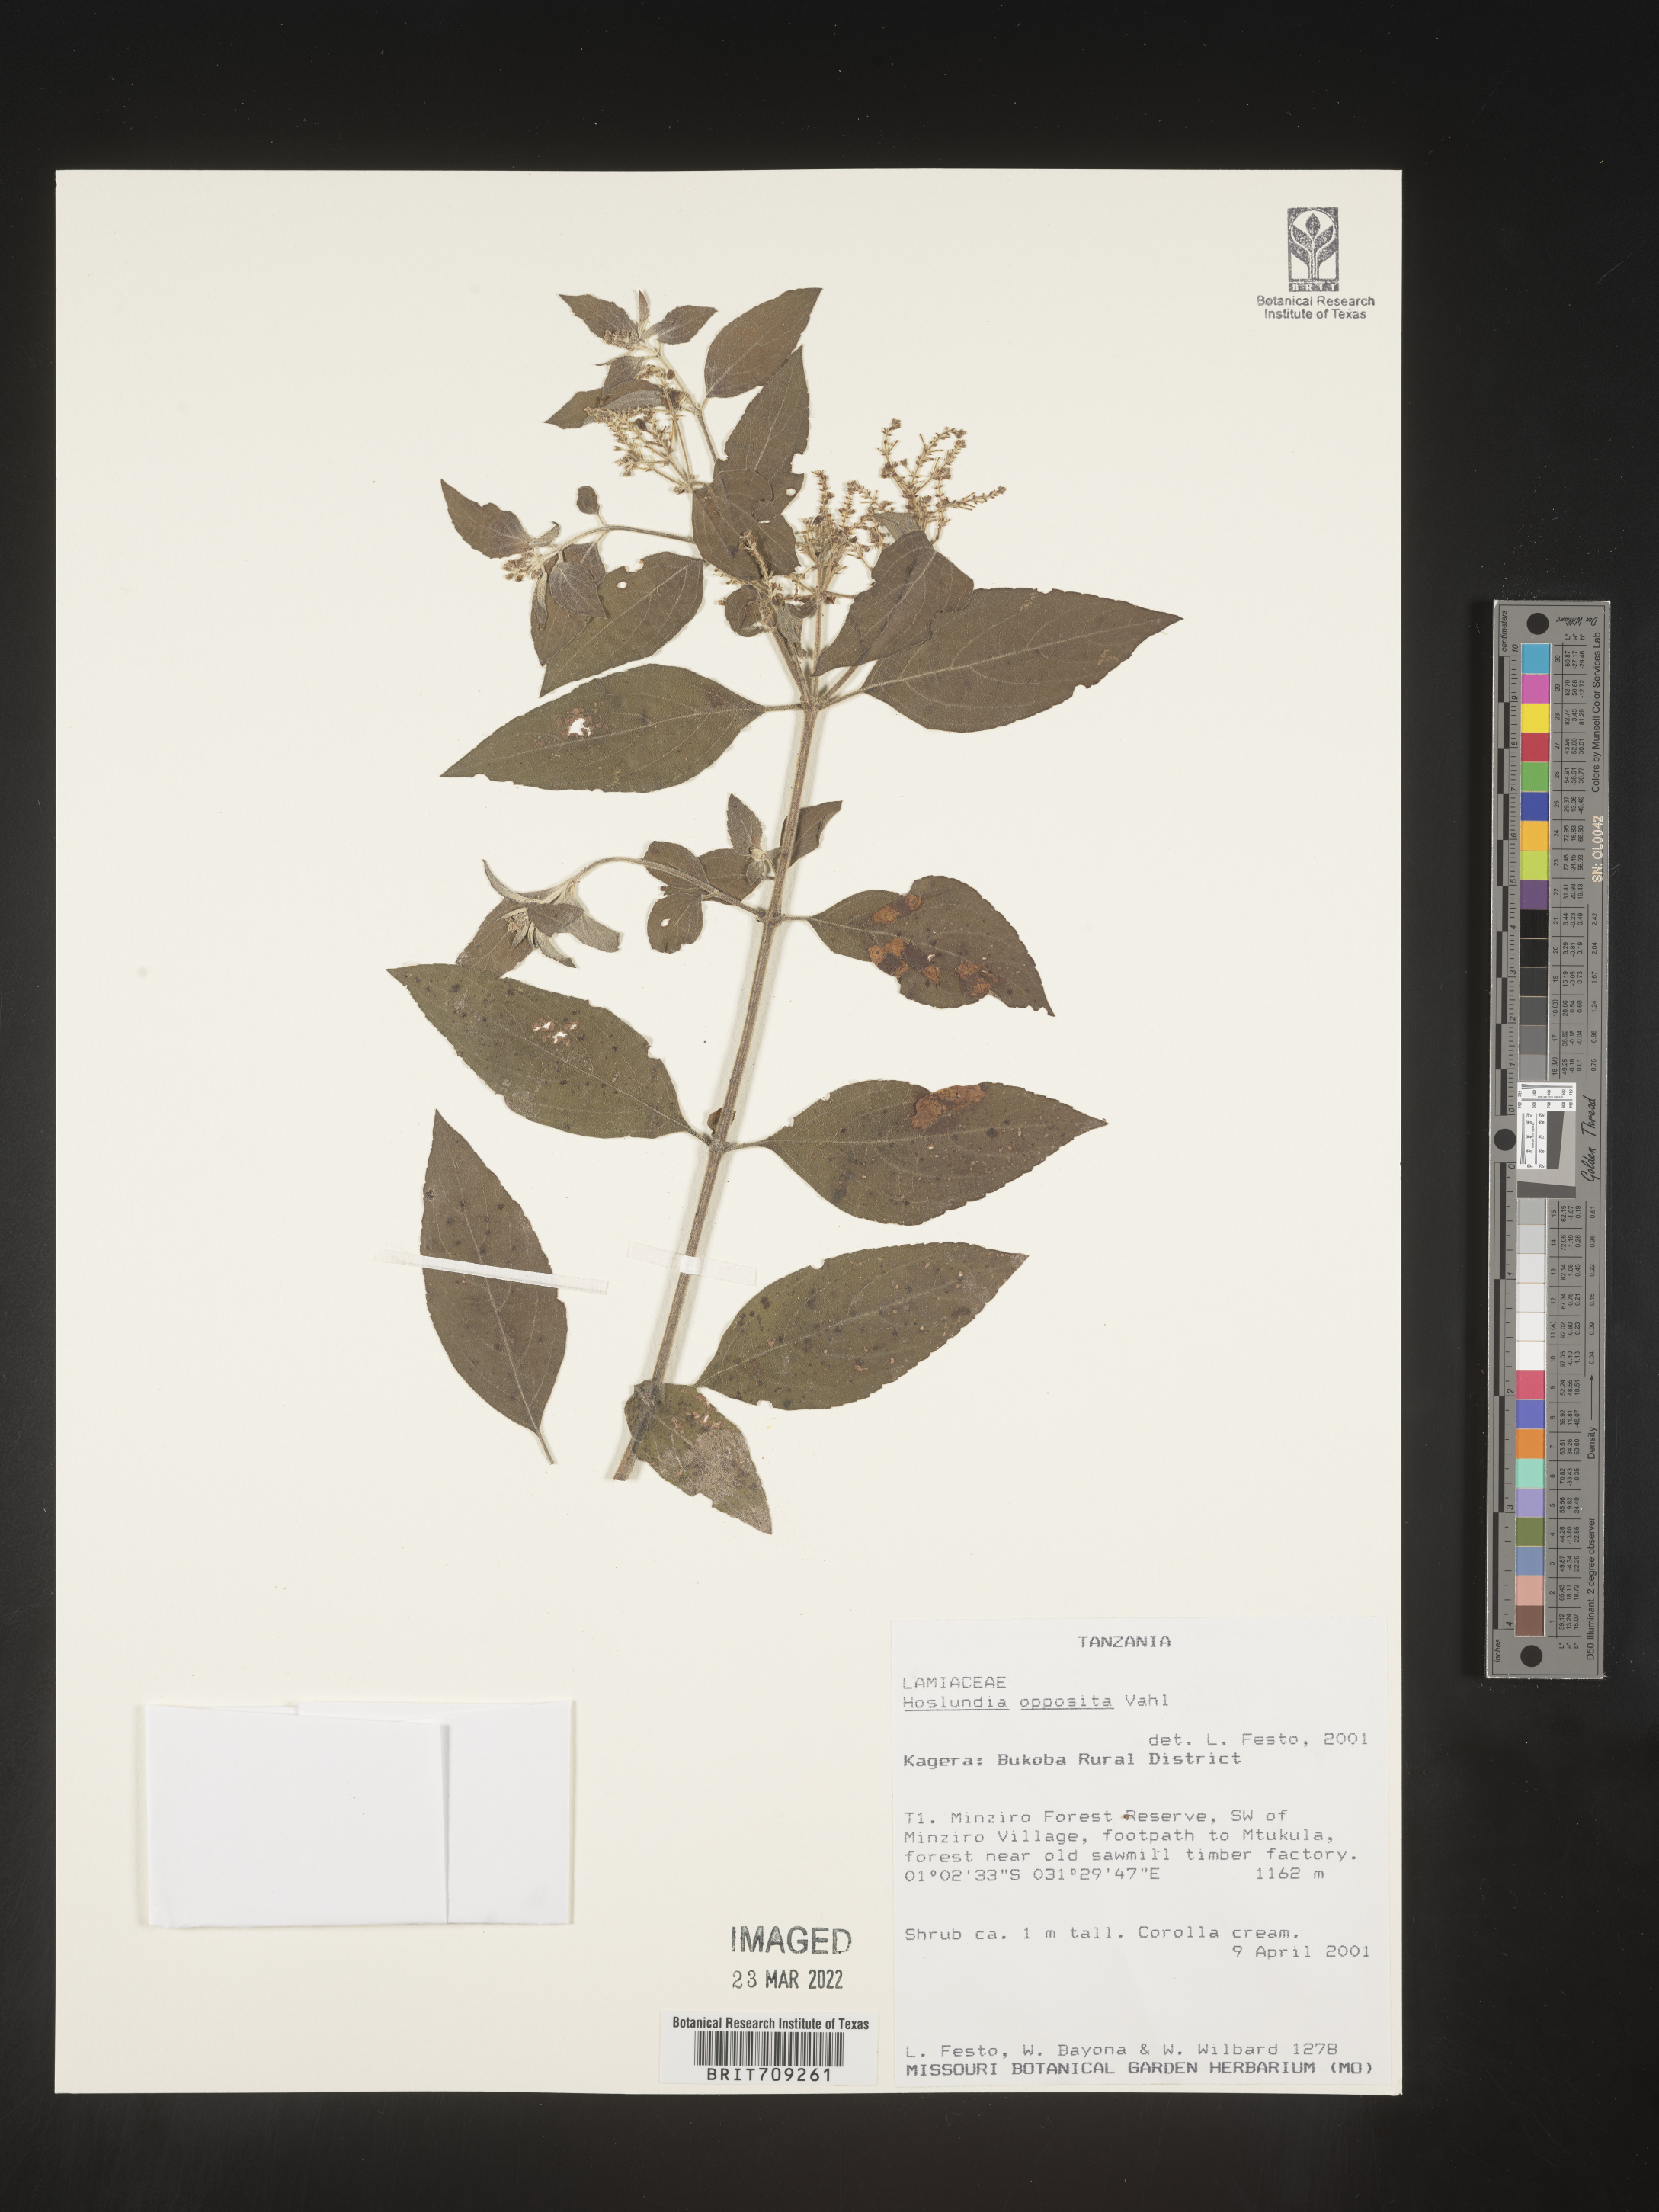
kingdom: Plantae
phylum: Tracheophyta
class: Magnoliopsida
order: Lamiales
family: Lamiaceae
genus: Hoslundia
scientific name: Hoslundia opposita
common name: Kamyuye
